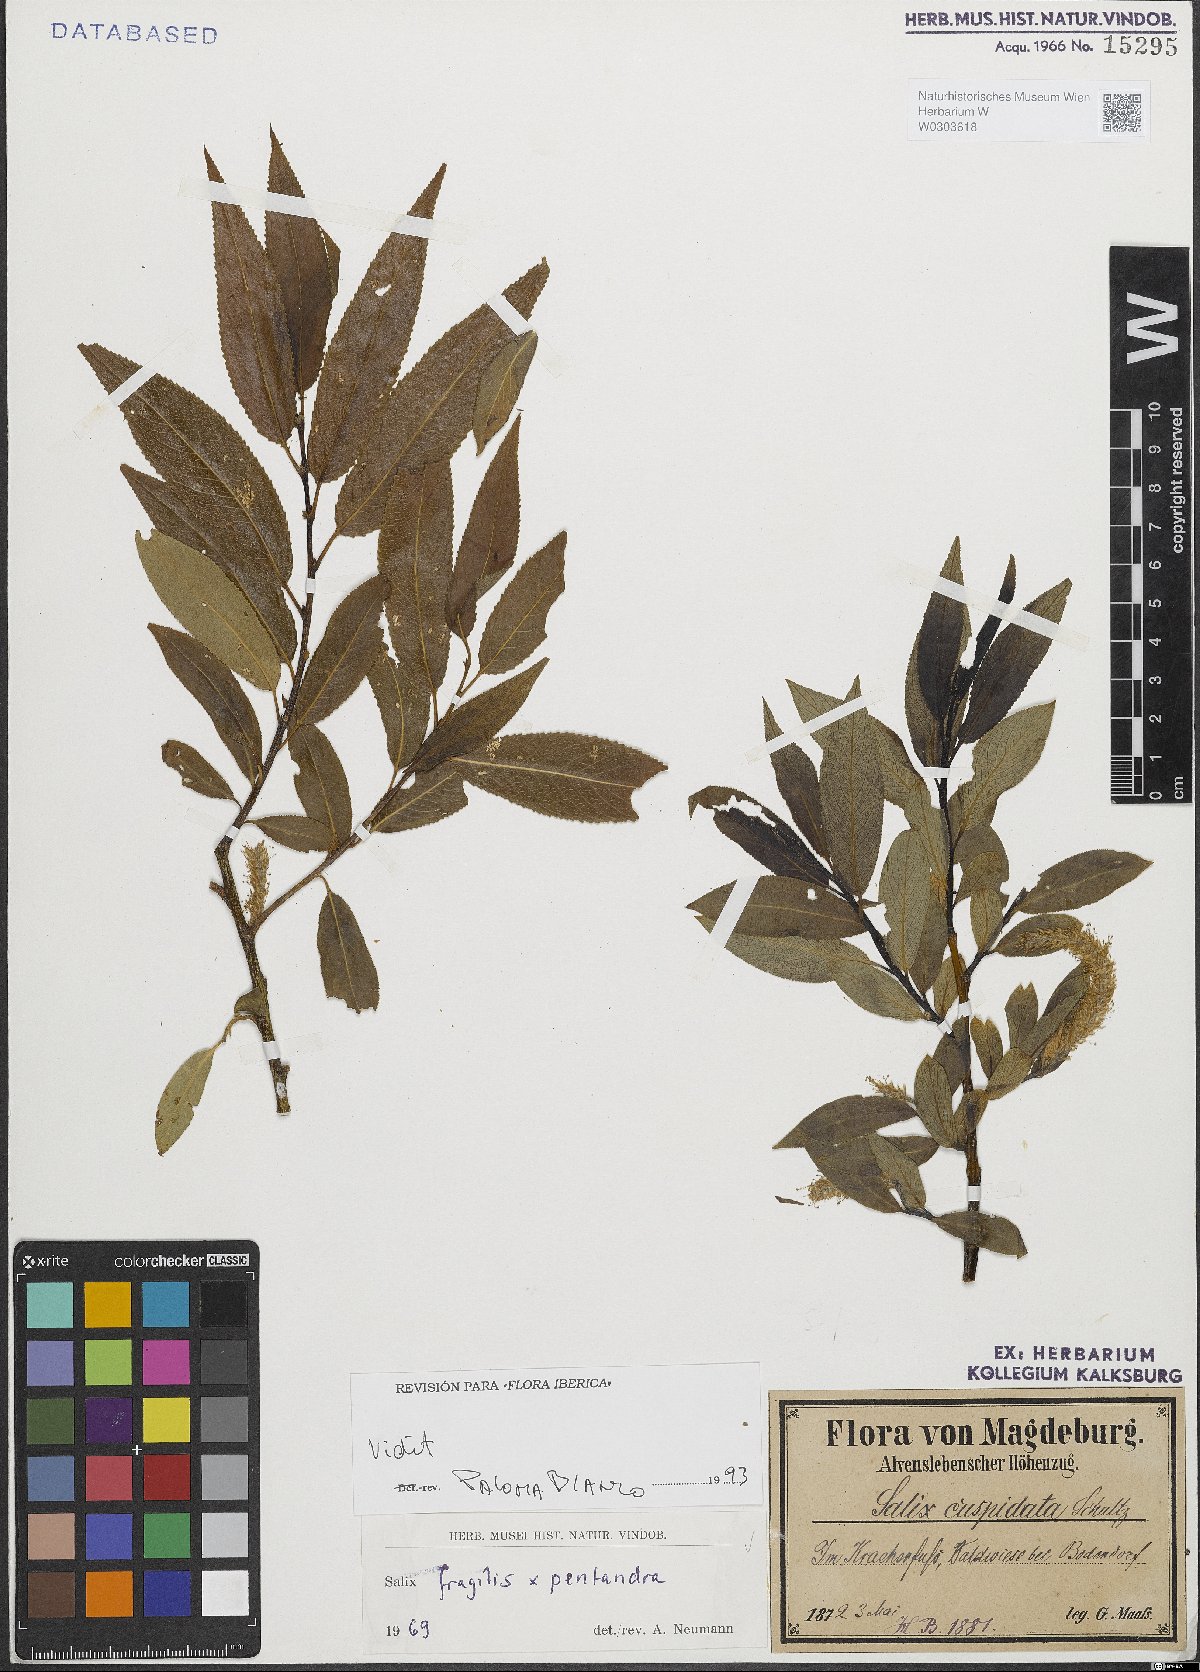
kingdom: Plantae
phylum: Tracheophyta
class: Magnoliopsida
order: Malpighiales
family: Salicaceae
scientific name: Salicaceae
